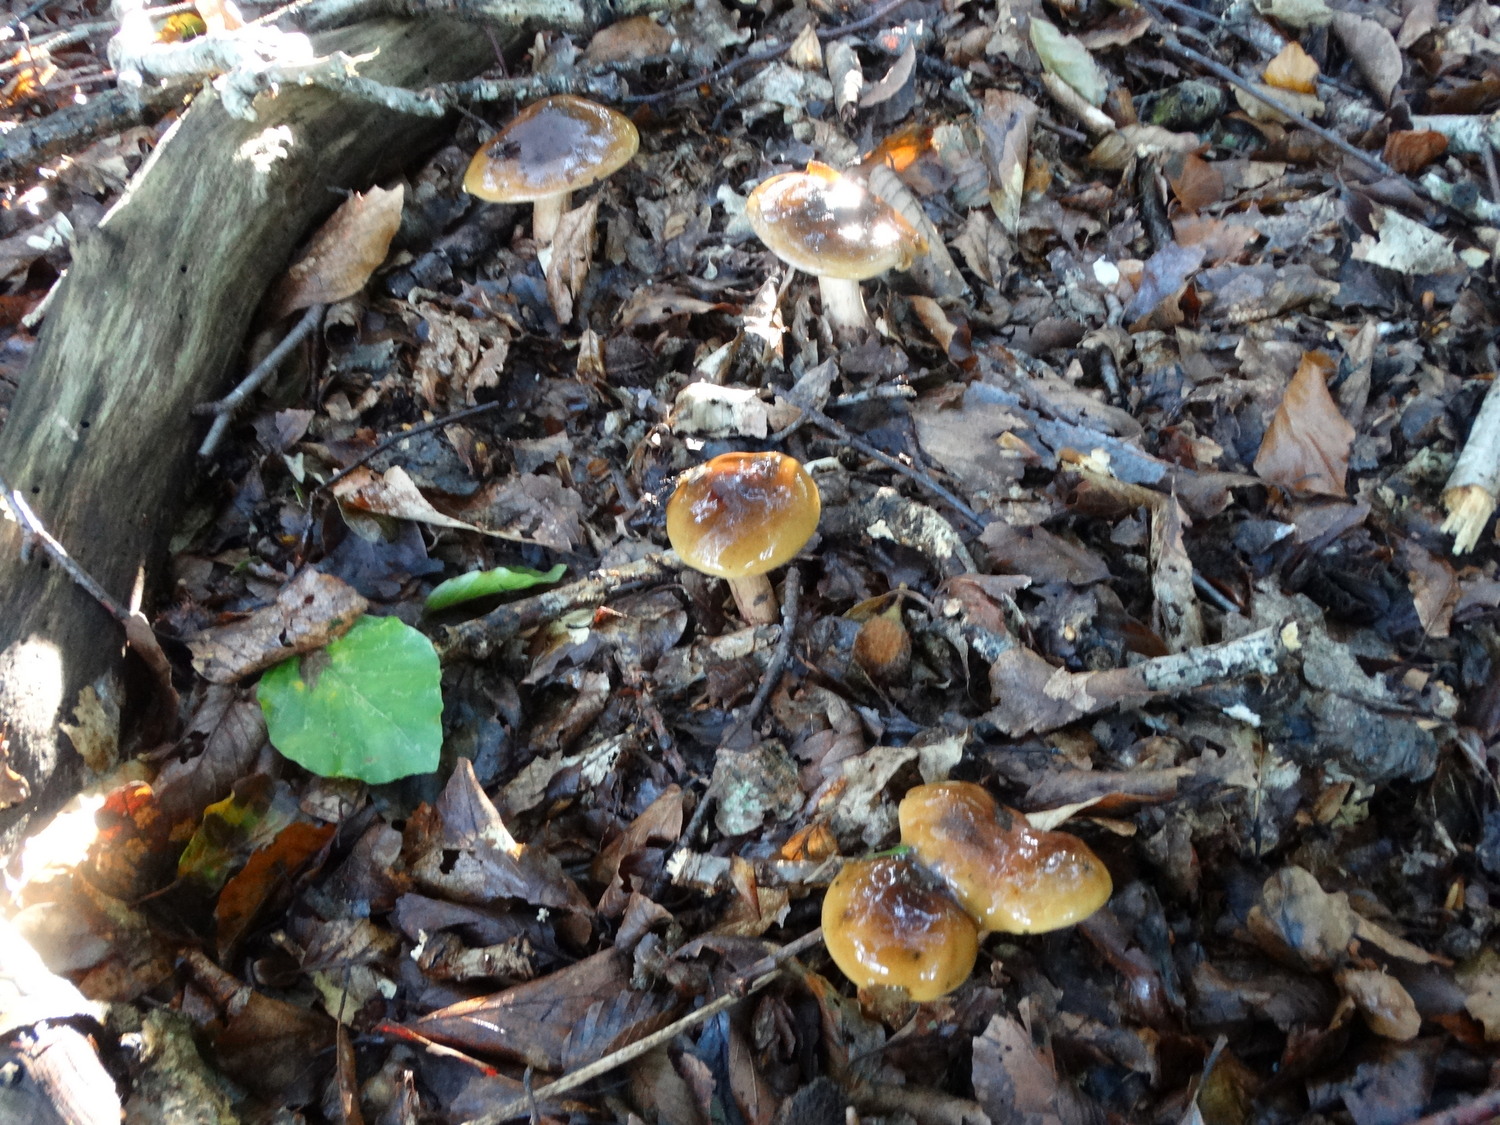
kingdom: Fungi
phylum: Basidiomycota
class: Agaricomycetes
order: Agaricales
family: Tricholomataceae
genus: Tricholoma
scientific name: Tricholoma ustale
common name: sveden ridderhat
